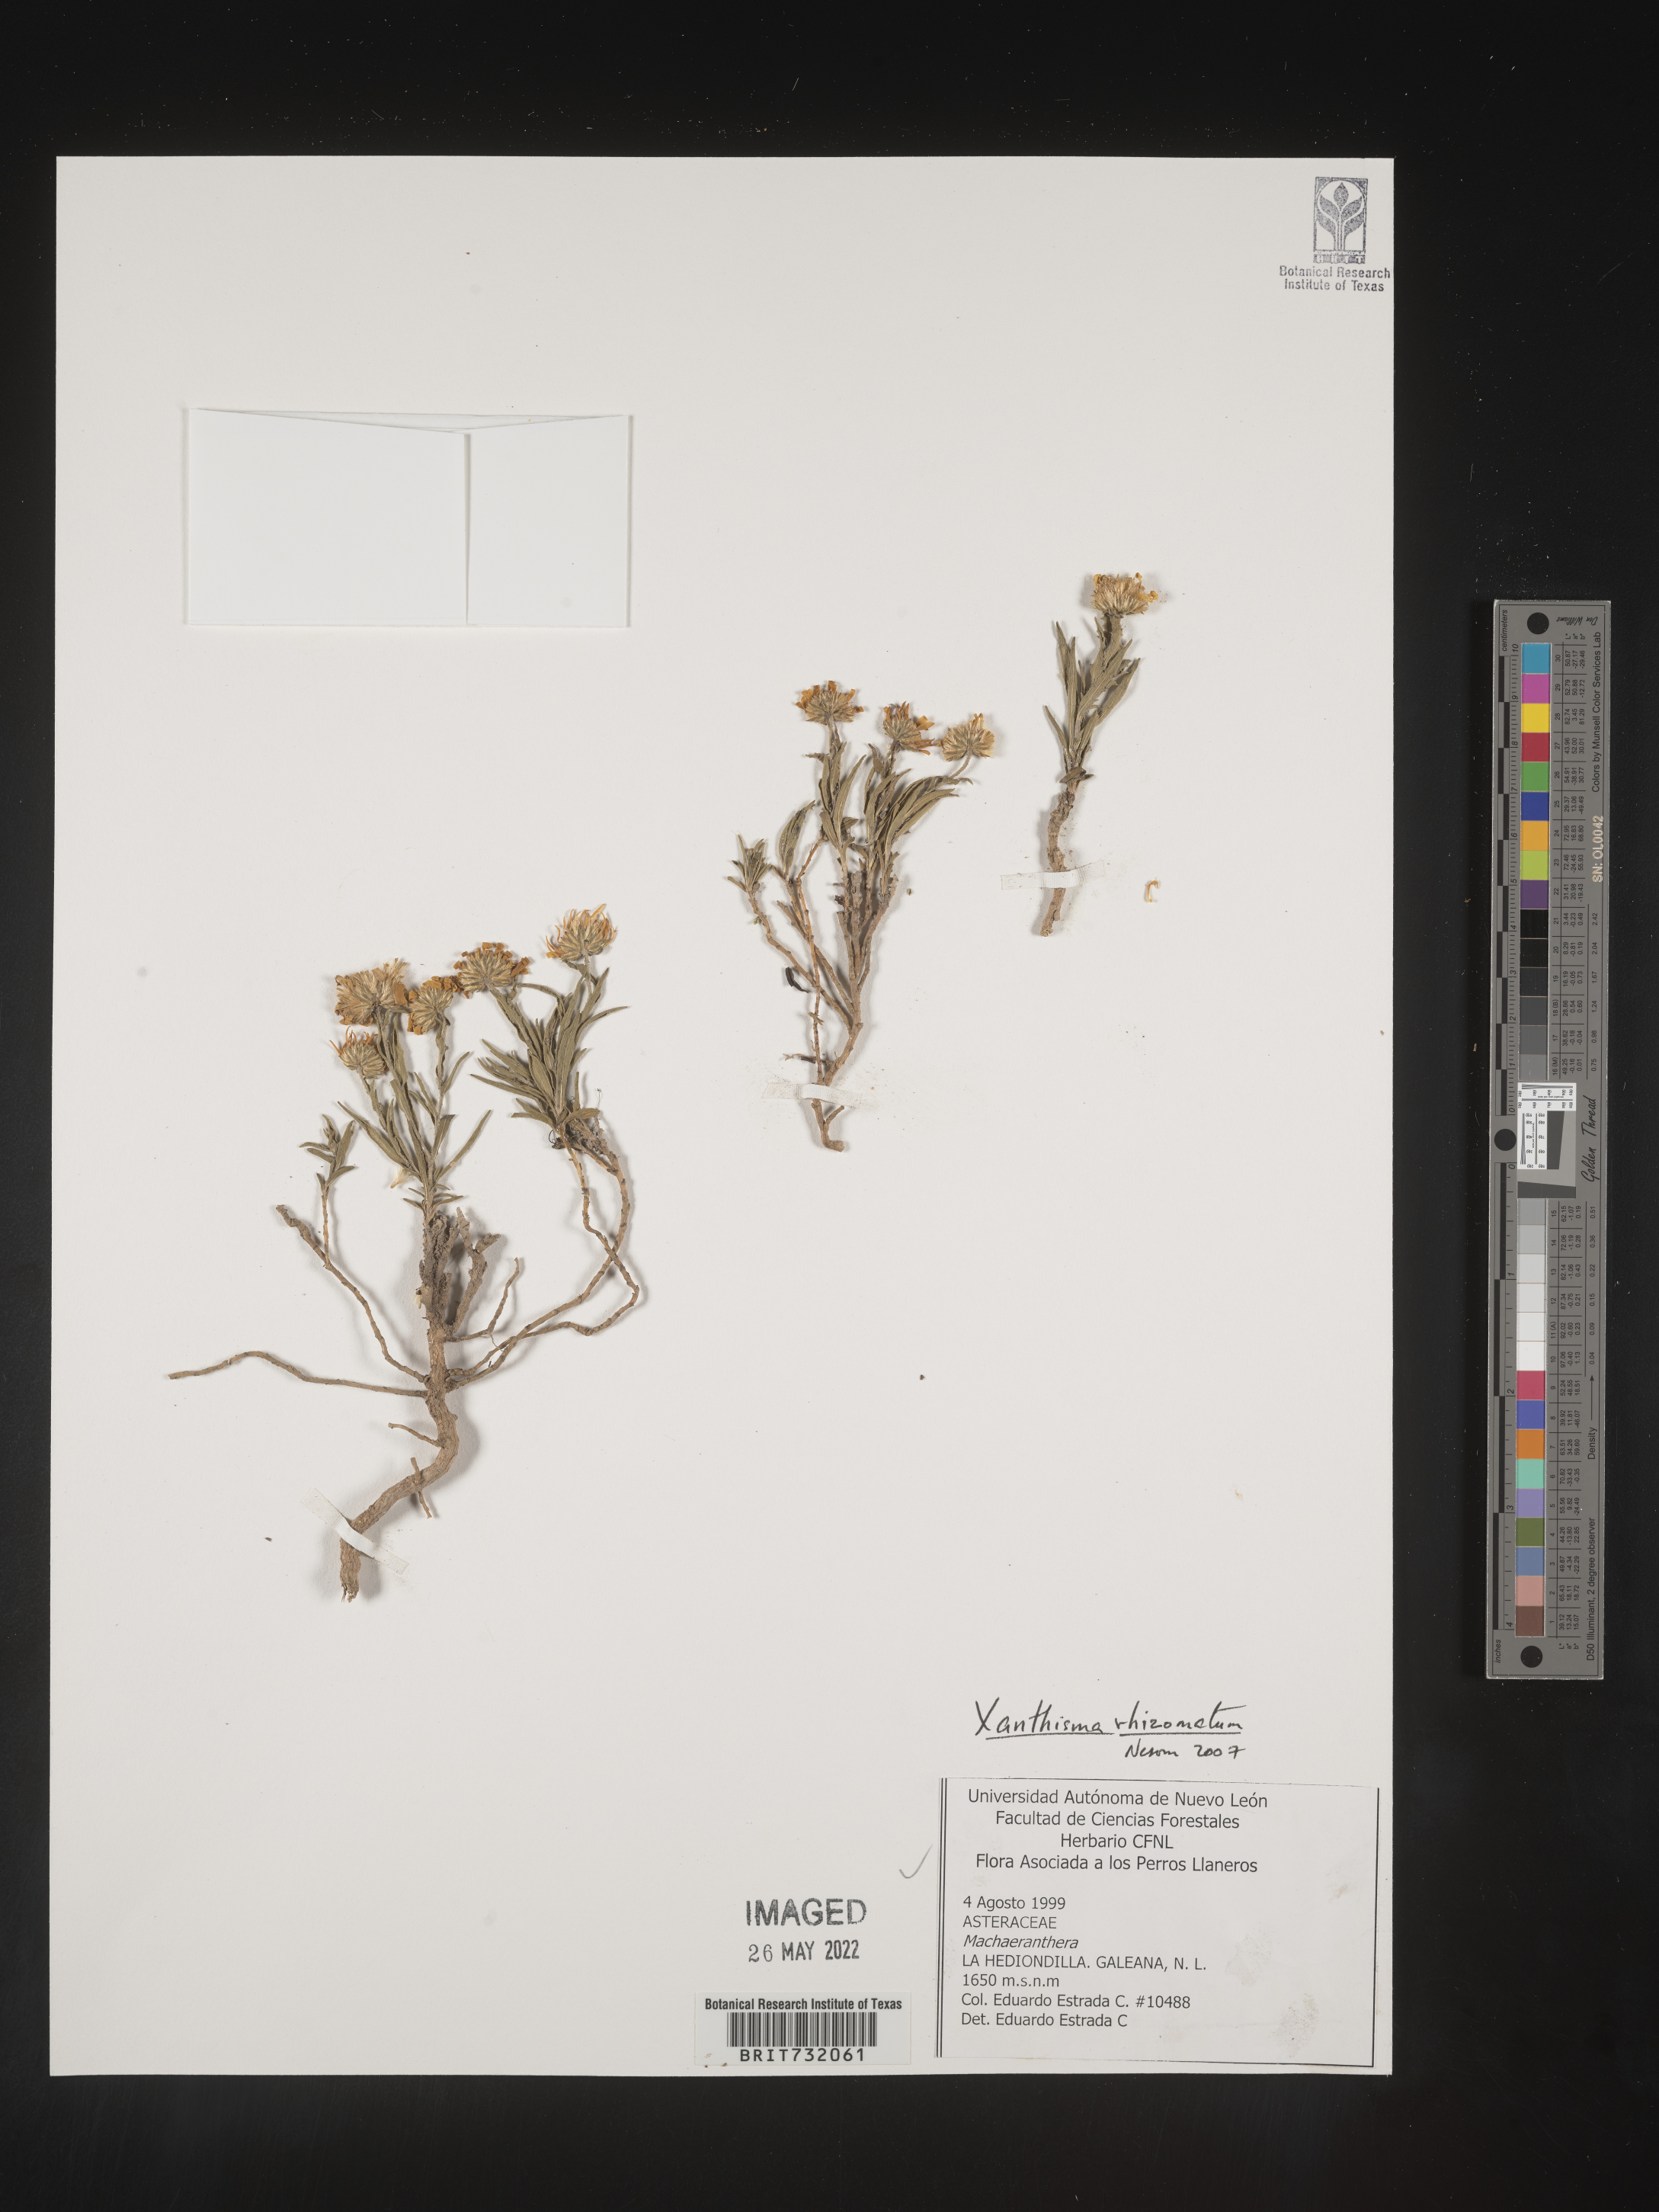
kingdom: Plantae
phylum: Tracheophyta
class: Magnoliopsida
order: Asterales
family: Asteraceae
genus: Xanthisma
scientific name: Xanthisma rhizomatum
